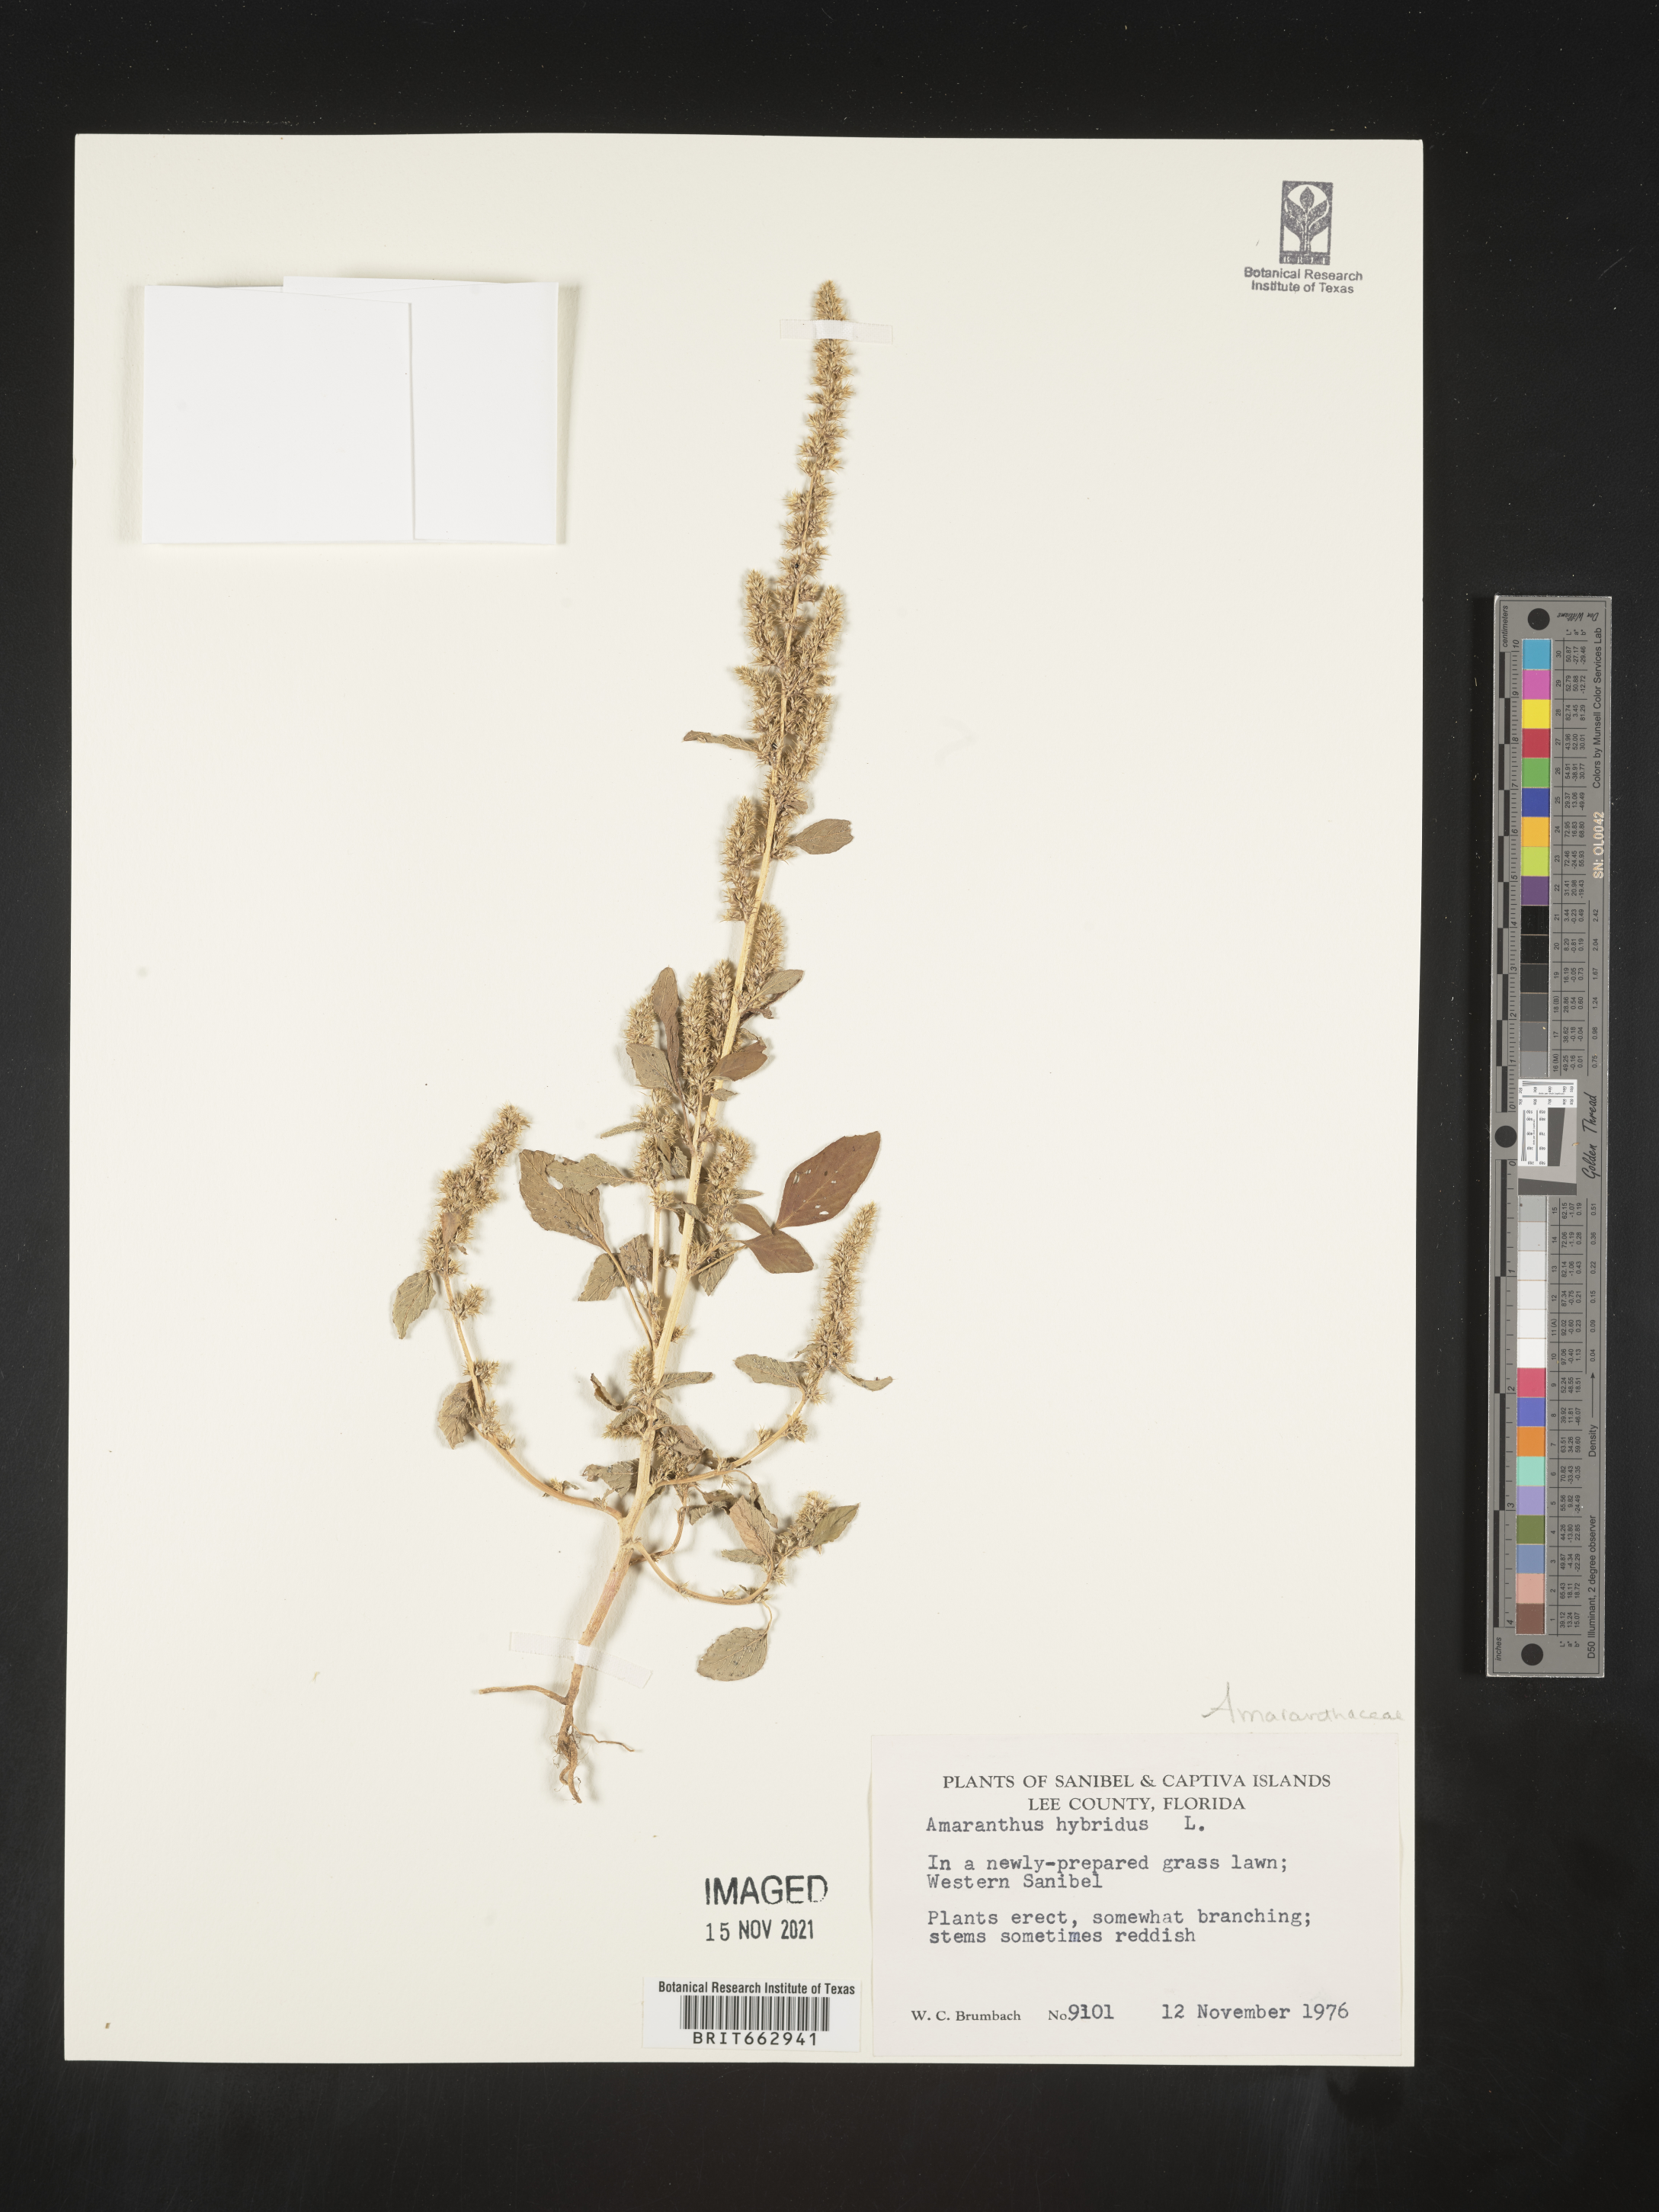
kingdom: Plantae
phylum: Tracheophyta
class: Magnoliopsida
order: Caryophyllales
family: Amaranthaceae
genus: Amaranthus
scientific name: Amaranthus hybridus
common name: Green amaranth
